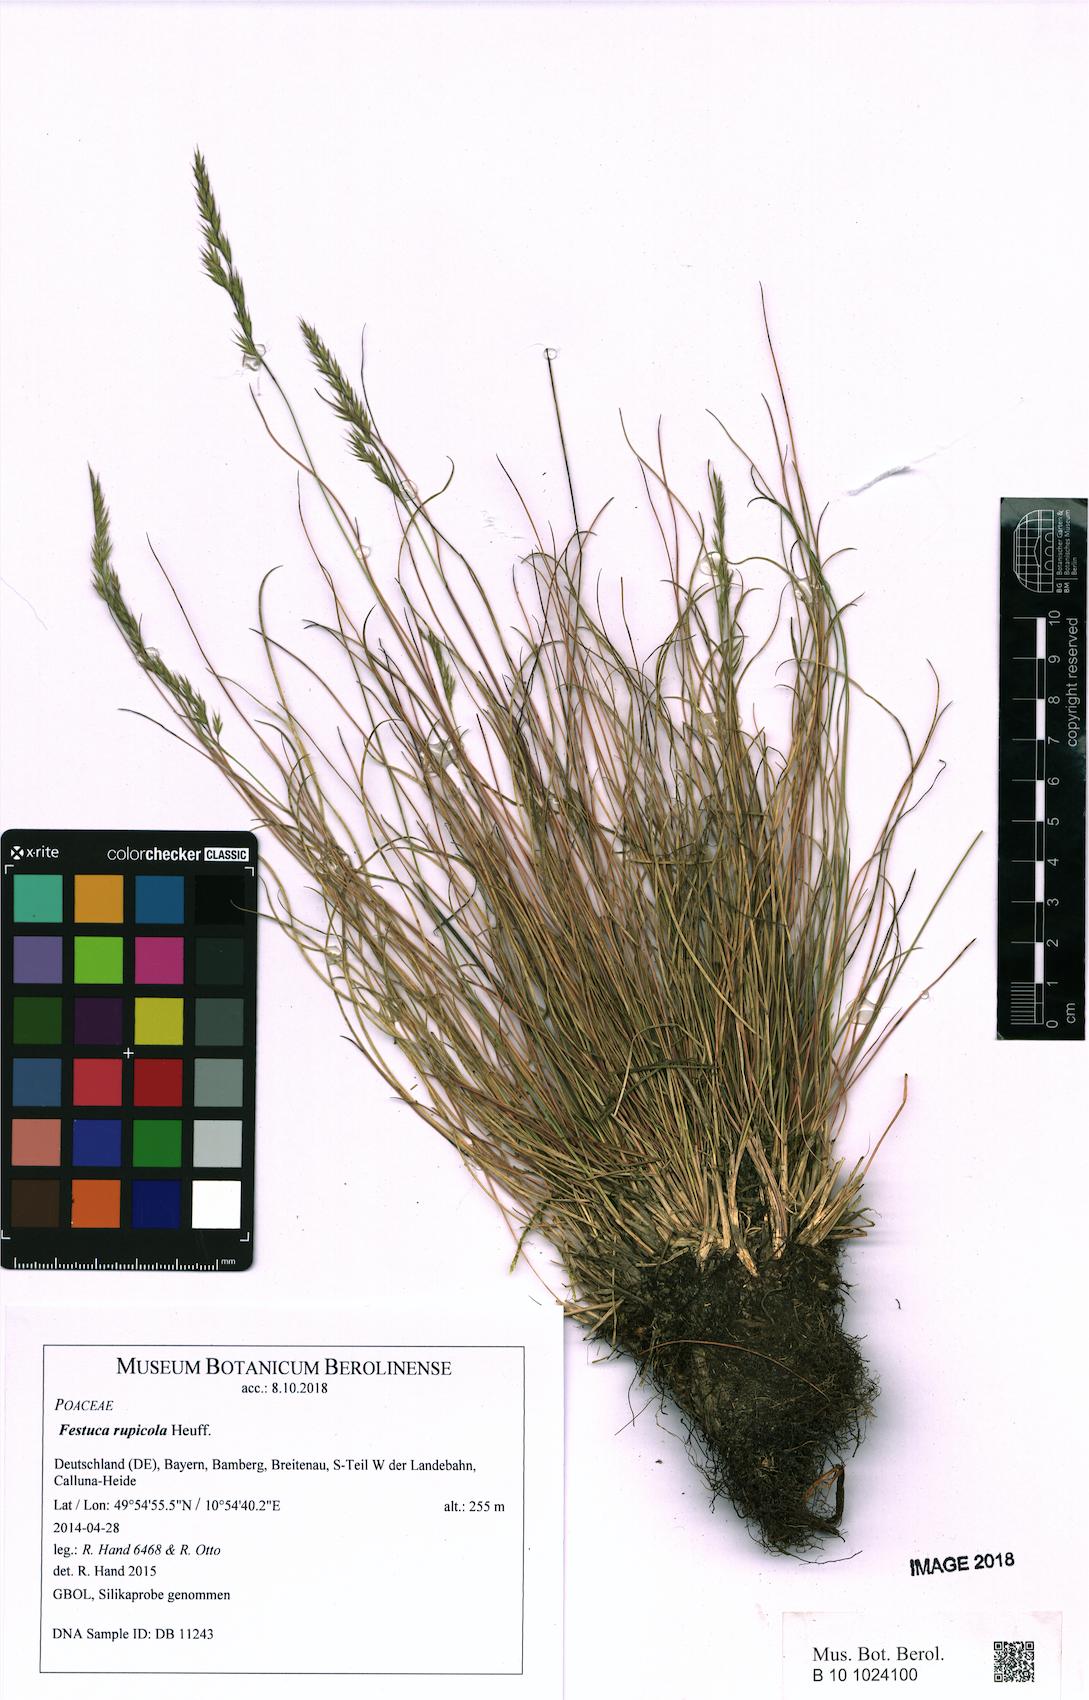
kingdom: Plantae
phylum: Tracheophyta
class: Liliopsida
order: Poales
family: Poaceae
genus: Festuca
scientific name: Festuca rupicola
